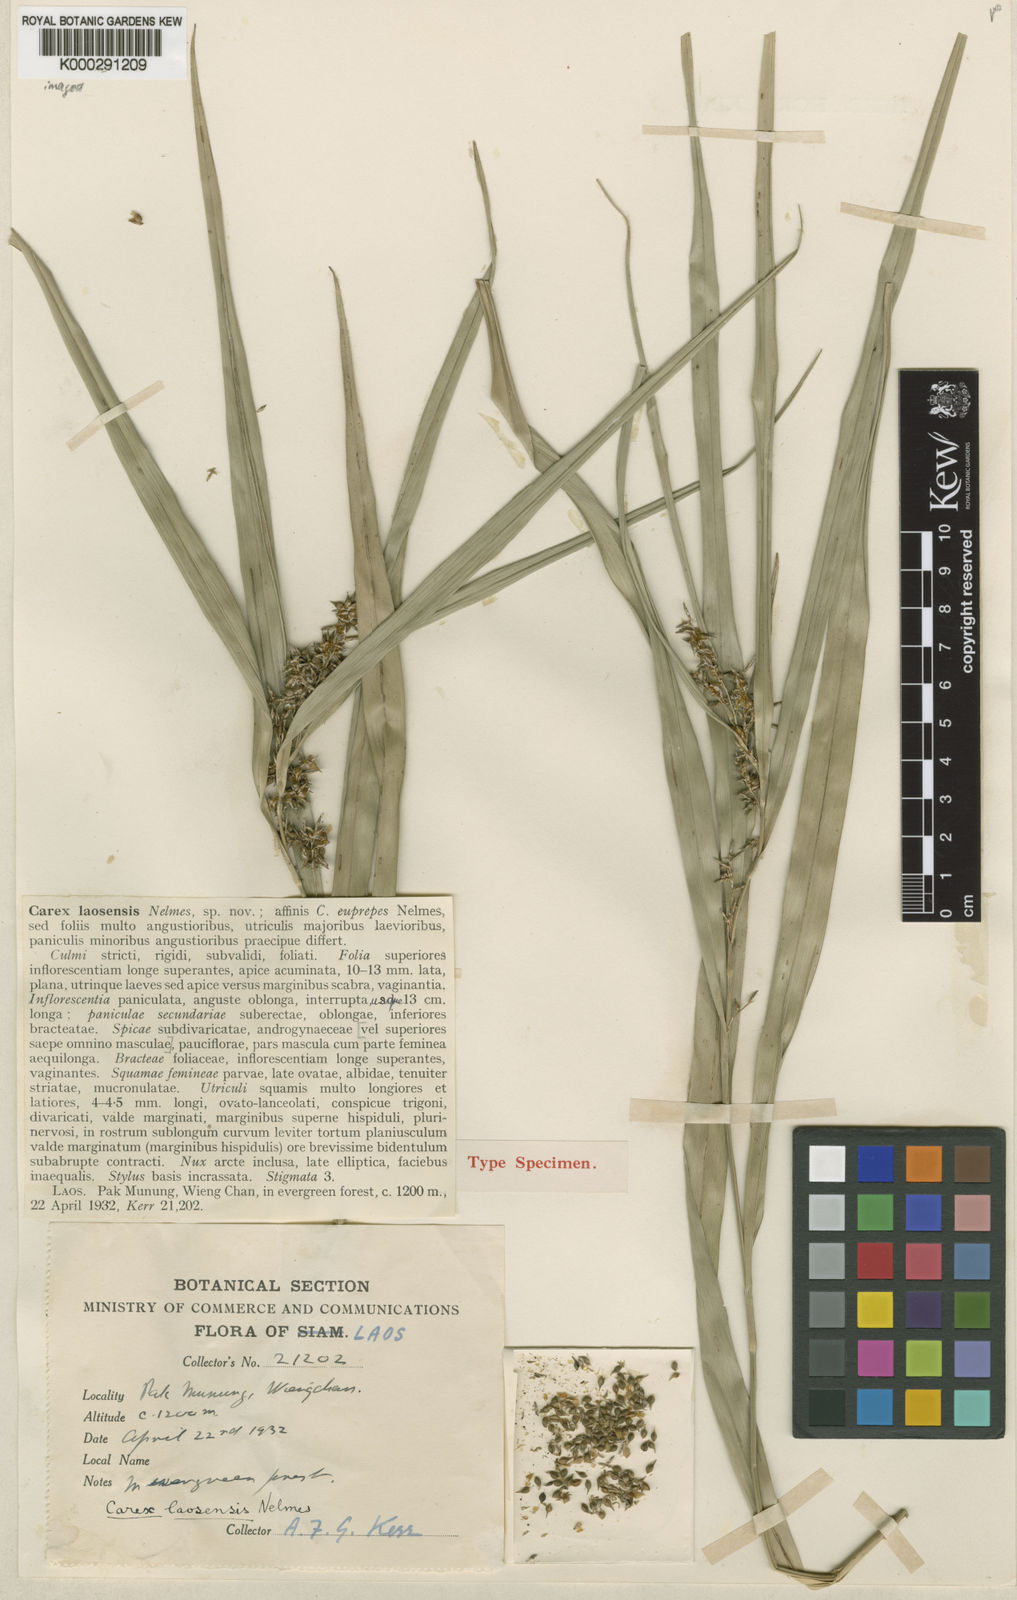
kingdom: Plantae
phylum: Tracheophyta
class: Liliopsida
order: Poales
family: Cyperaceae
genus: Carex
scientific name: Carex laosensis
